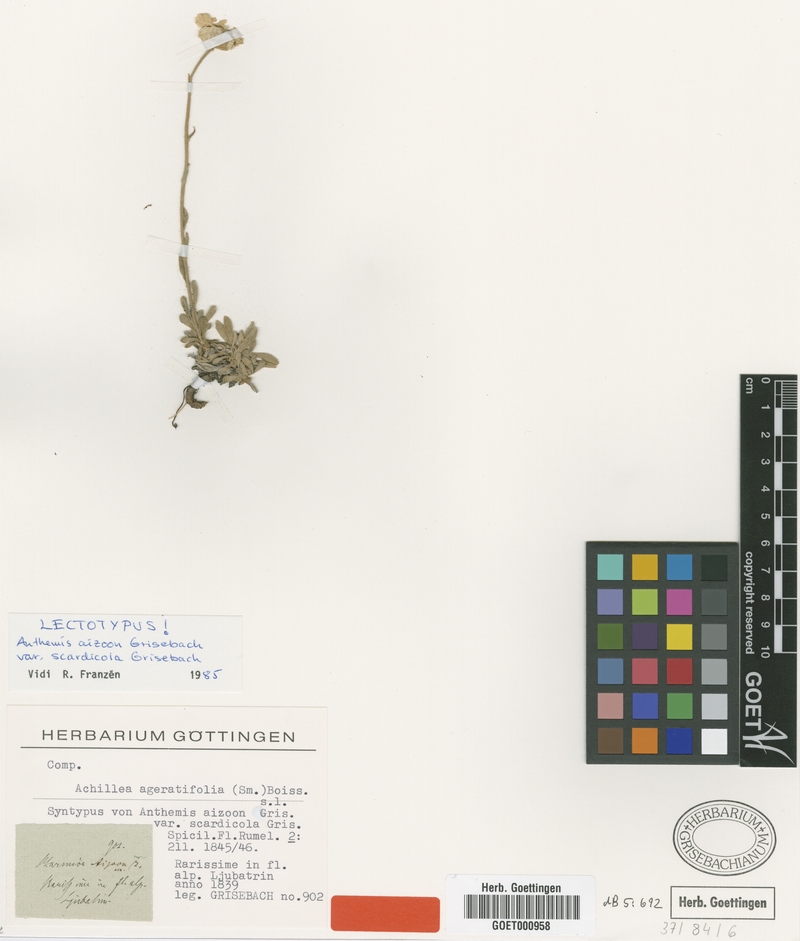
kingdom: Plantae
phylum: Tracheophyta
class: Magnoliopsida
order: Asterales
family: Asteraceae
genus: Achillea
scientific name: Achillea ageratifolia
